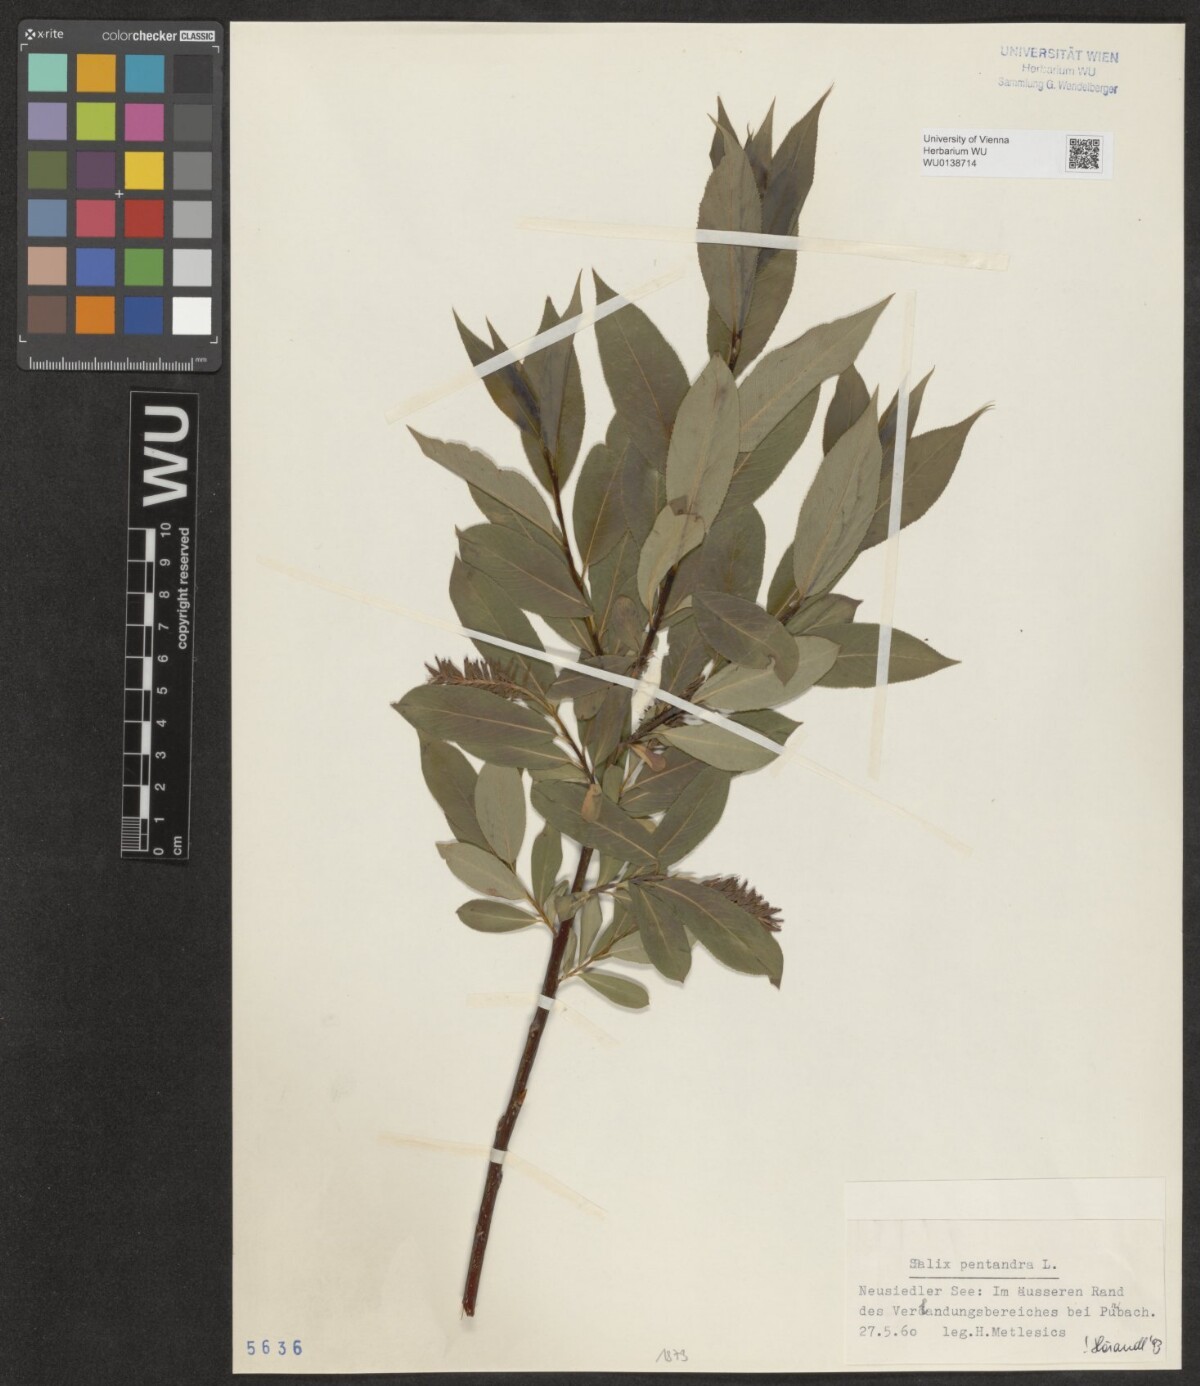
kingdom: Plantae
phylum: Tracheophyta
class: Magnoliopsida
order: Malpighiales
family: Salicaceae
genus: Salix
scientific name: Salix pentandra
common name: Bay willow
